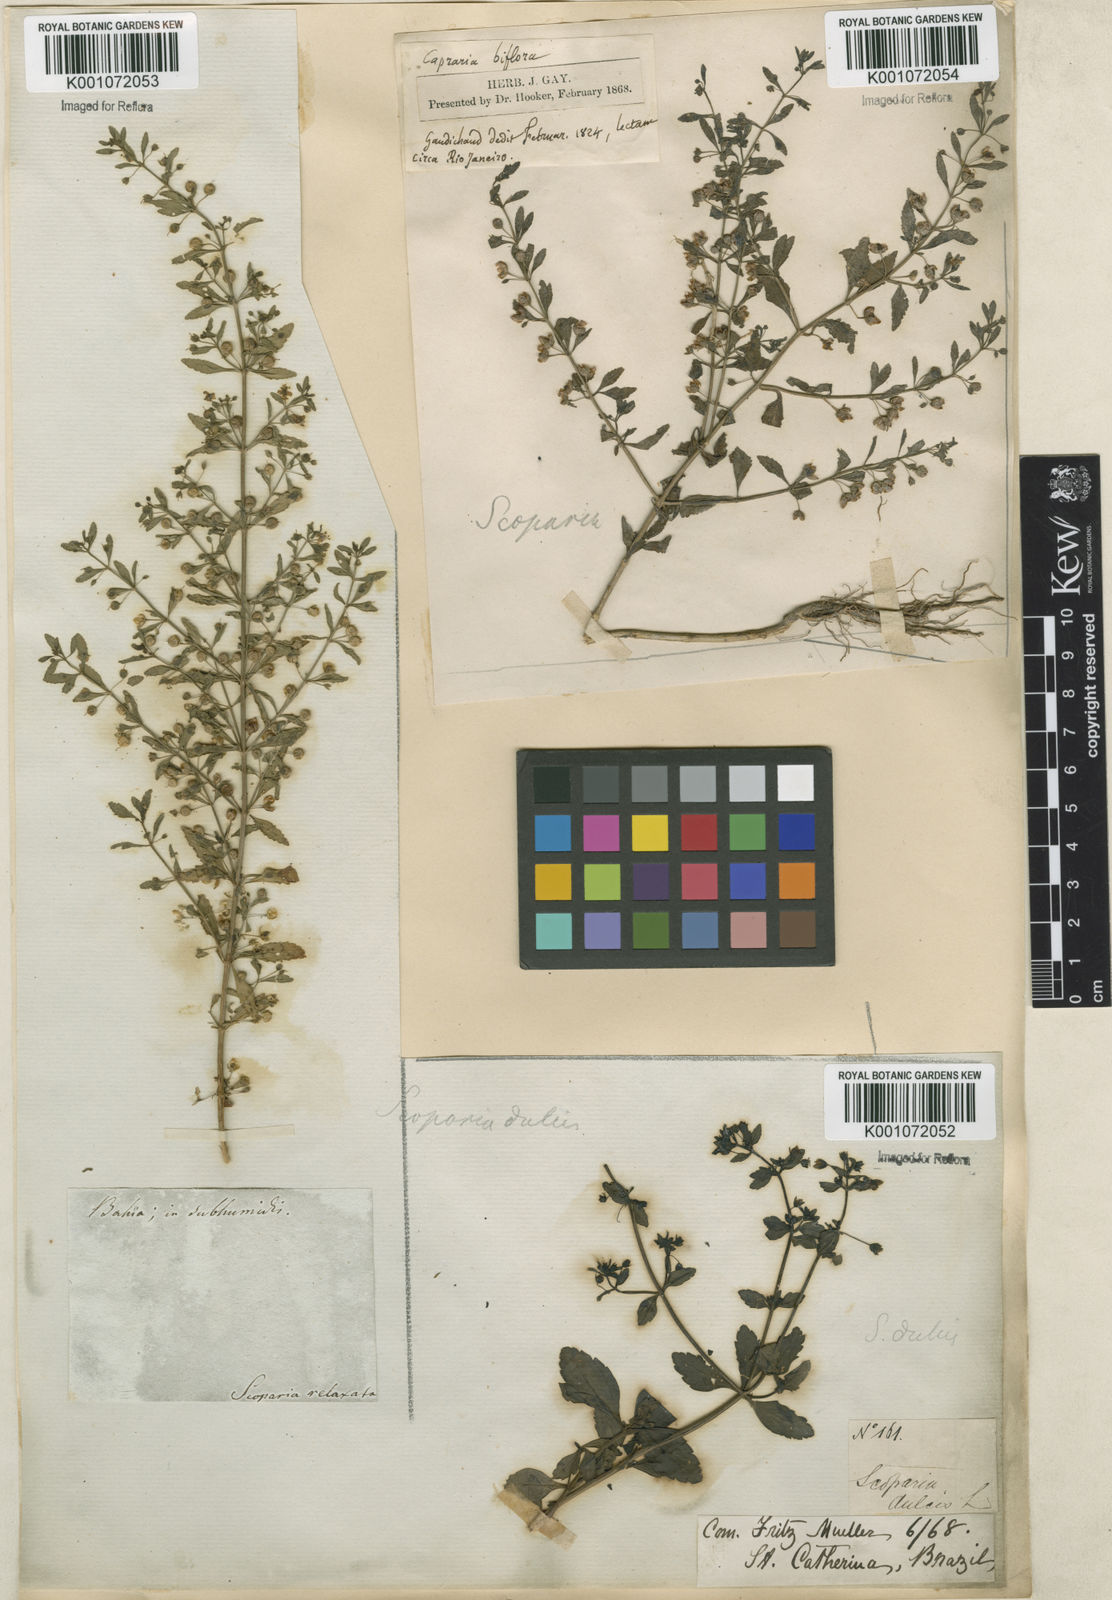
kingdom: Plantae
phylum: Tracheophyta
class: Magnoliopsida
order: Lamiales
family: Plantaginaceae
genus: Scoparia
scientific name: Scoparia dulcis
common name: Scoparia-weed
